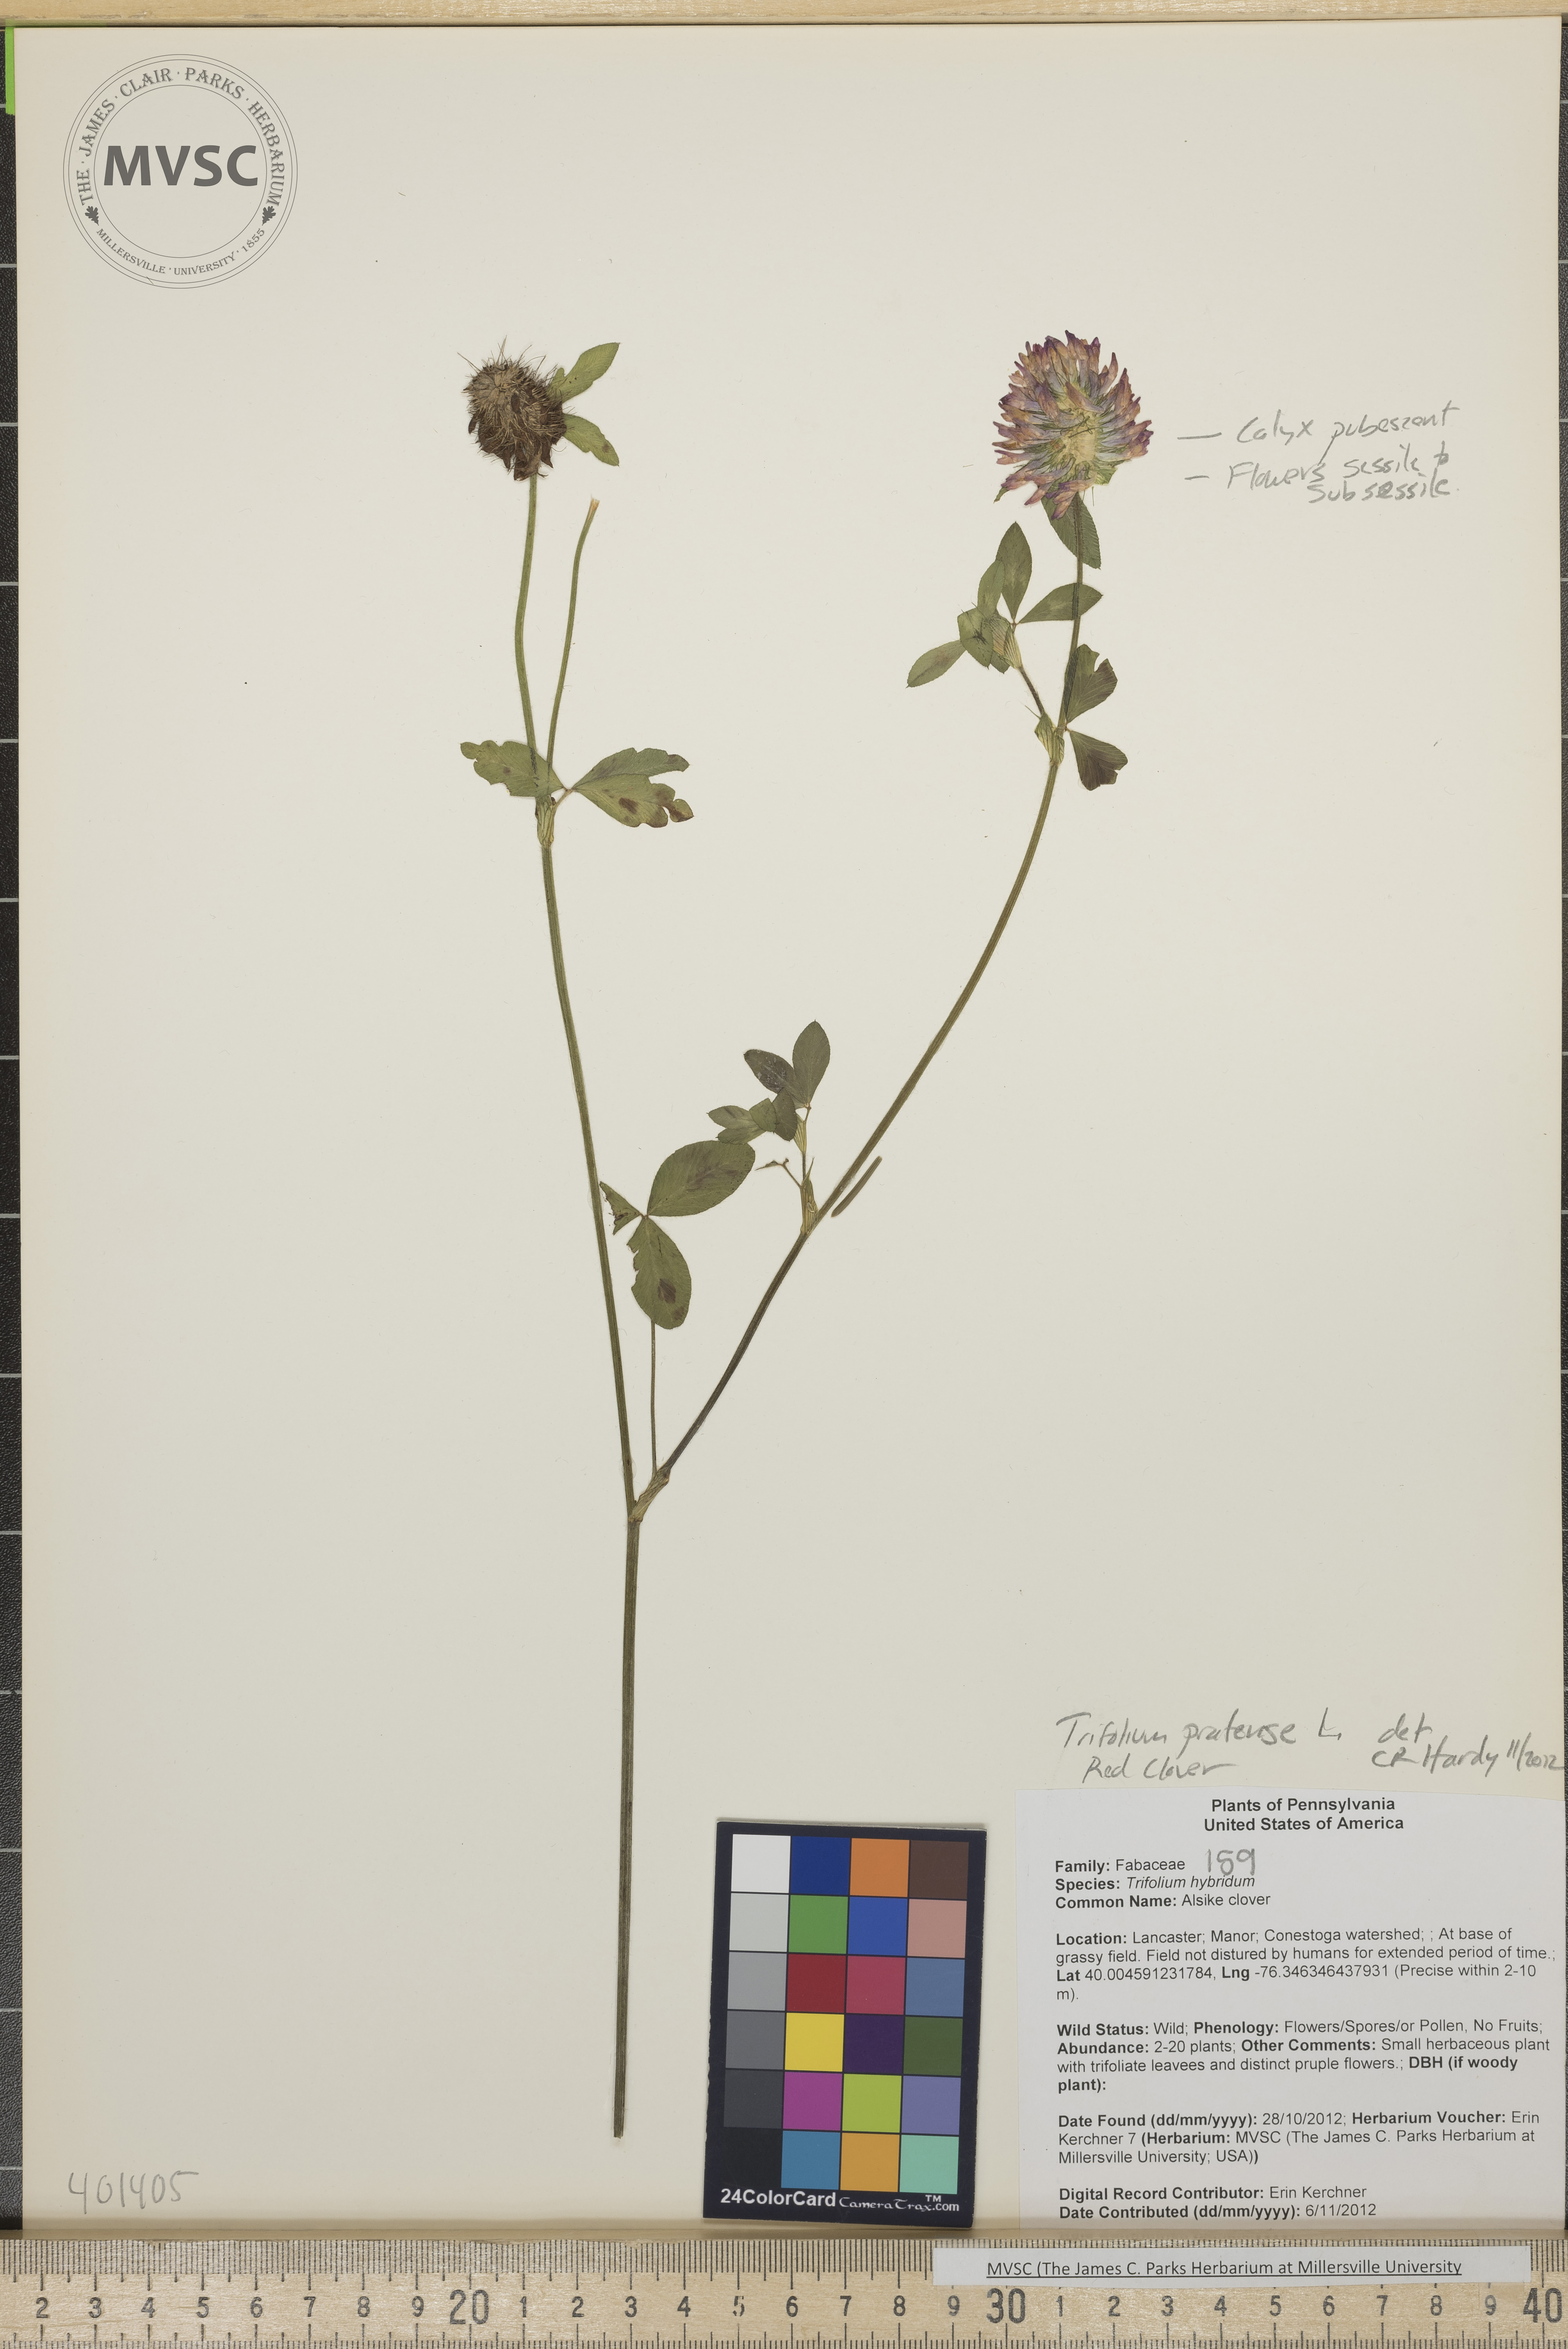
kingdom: Plantae
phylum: Tracheophyta
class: Magnoliopsida
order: Fabales
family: Fabaceae
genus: Trifolium
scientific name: Trifolium pratense
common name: Red clover
